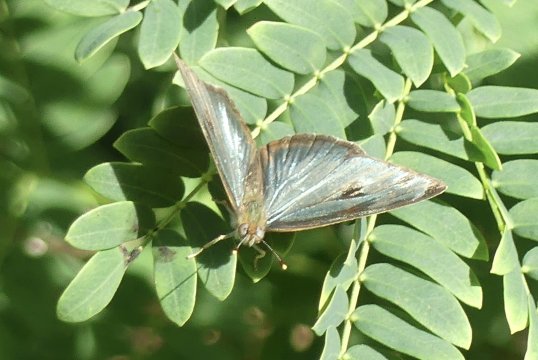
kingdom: Animalia
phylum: Arthropoda
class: Insecta
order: Lepidoptera
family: Nymphalidae
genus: Dynamine
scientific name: Dynamine mylitta
